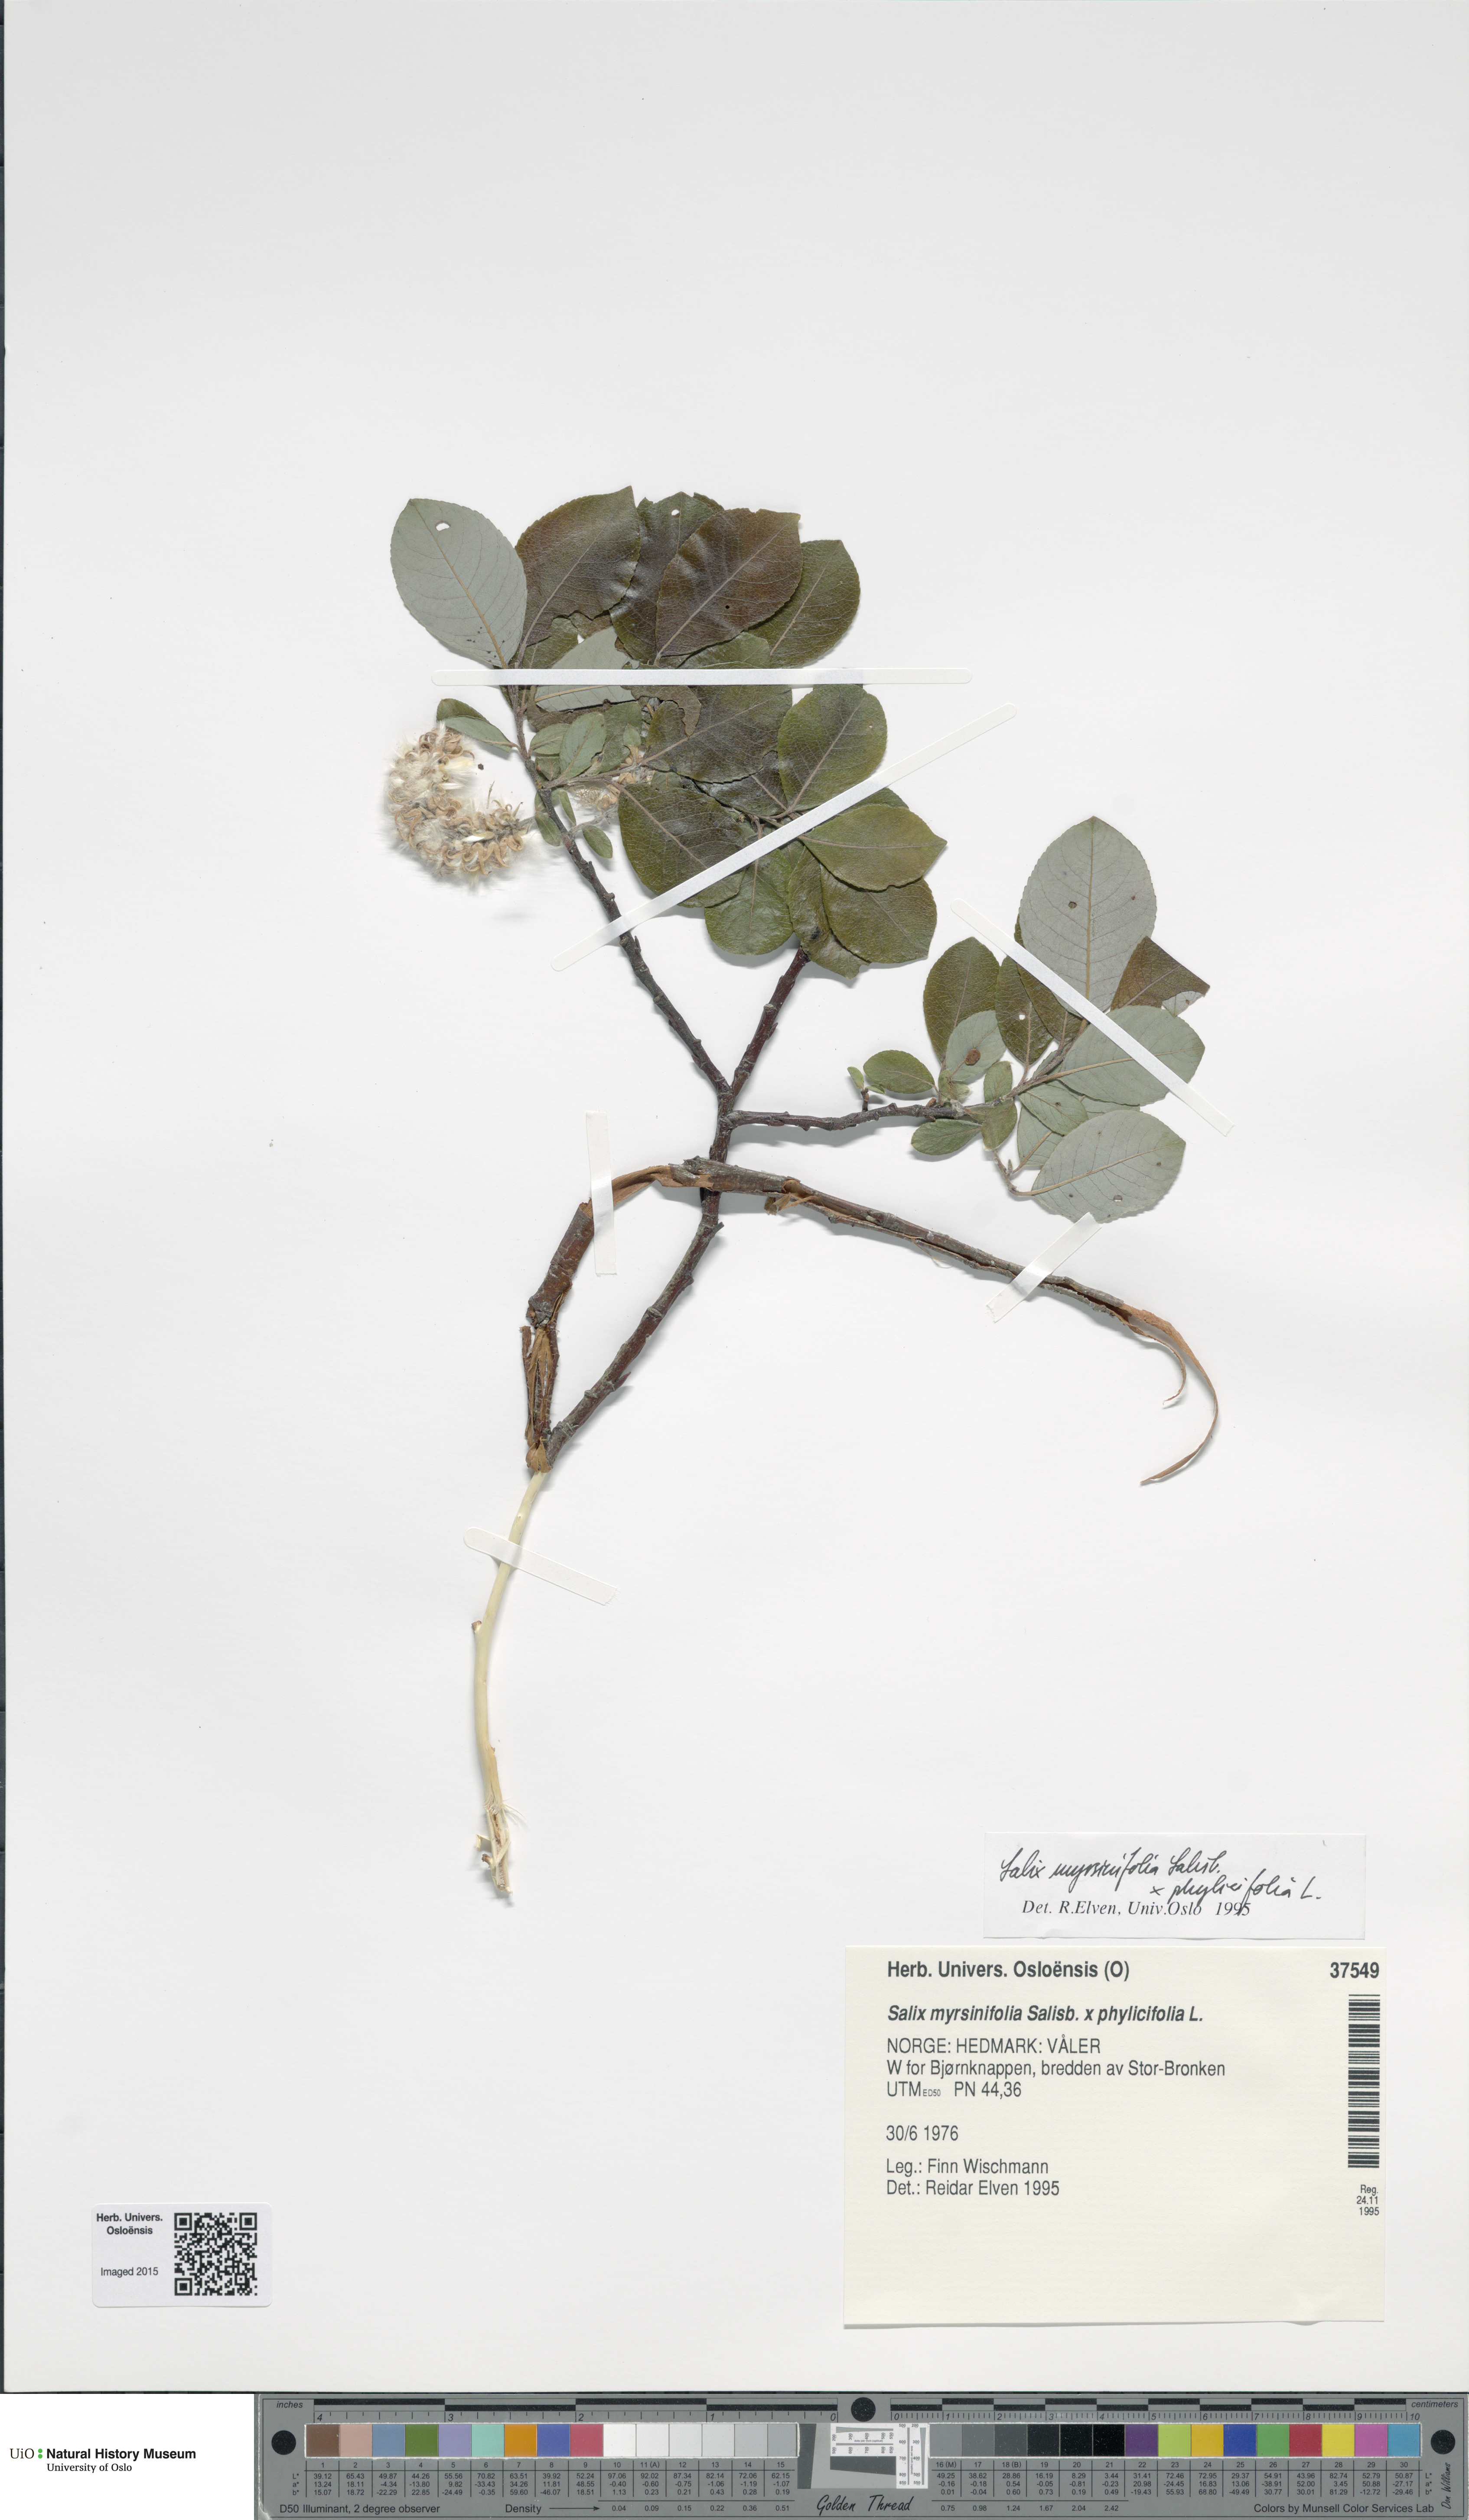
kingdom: Plantae
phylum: Tracheophyta
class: Magnoliopsida
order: Malpighiales
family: Salicaceae
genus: Salix
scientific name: Salix
